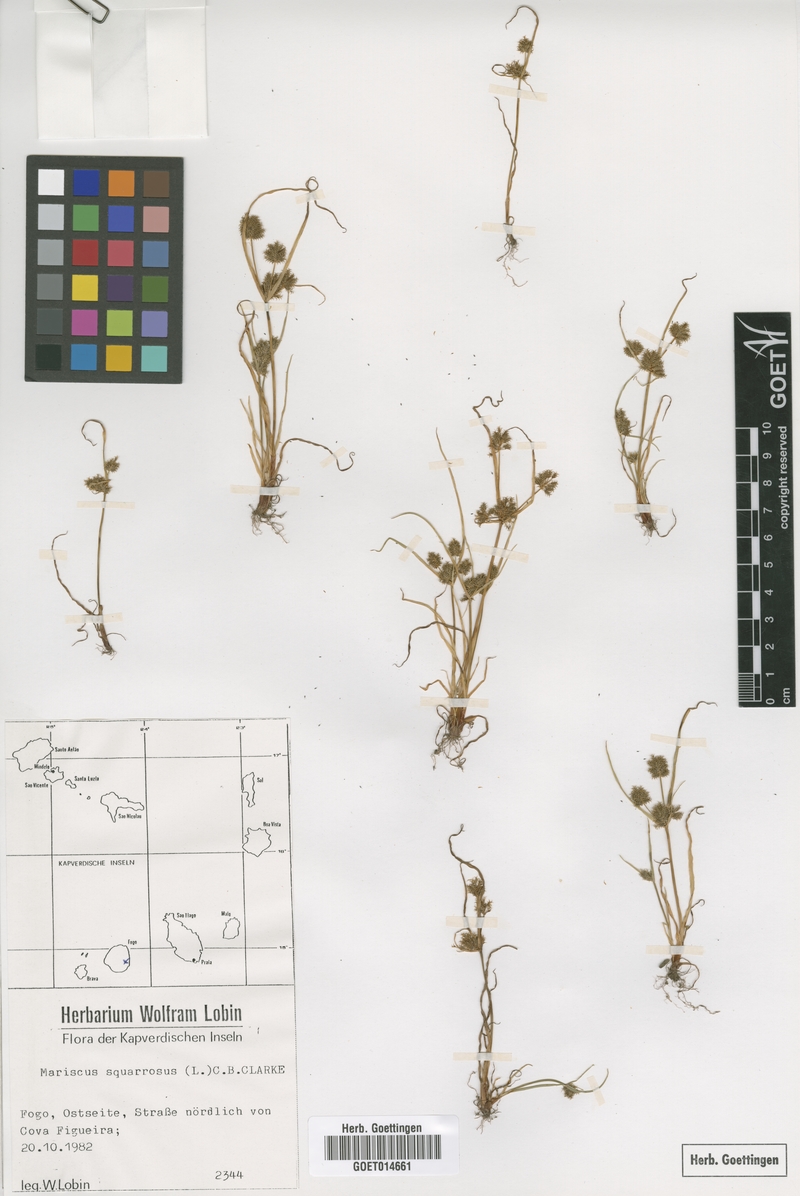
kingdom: Plantae
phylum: Tracheophyta
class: Liliopsida
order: Poales
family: Cyperaceae
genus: Cyperus
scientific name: Cyperus squarrosus
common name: Awned cyperus
